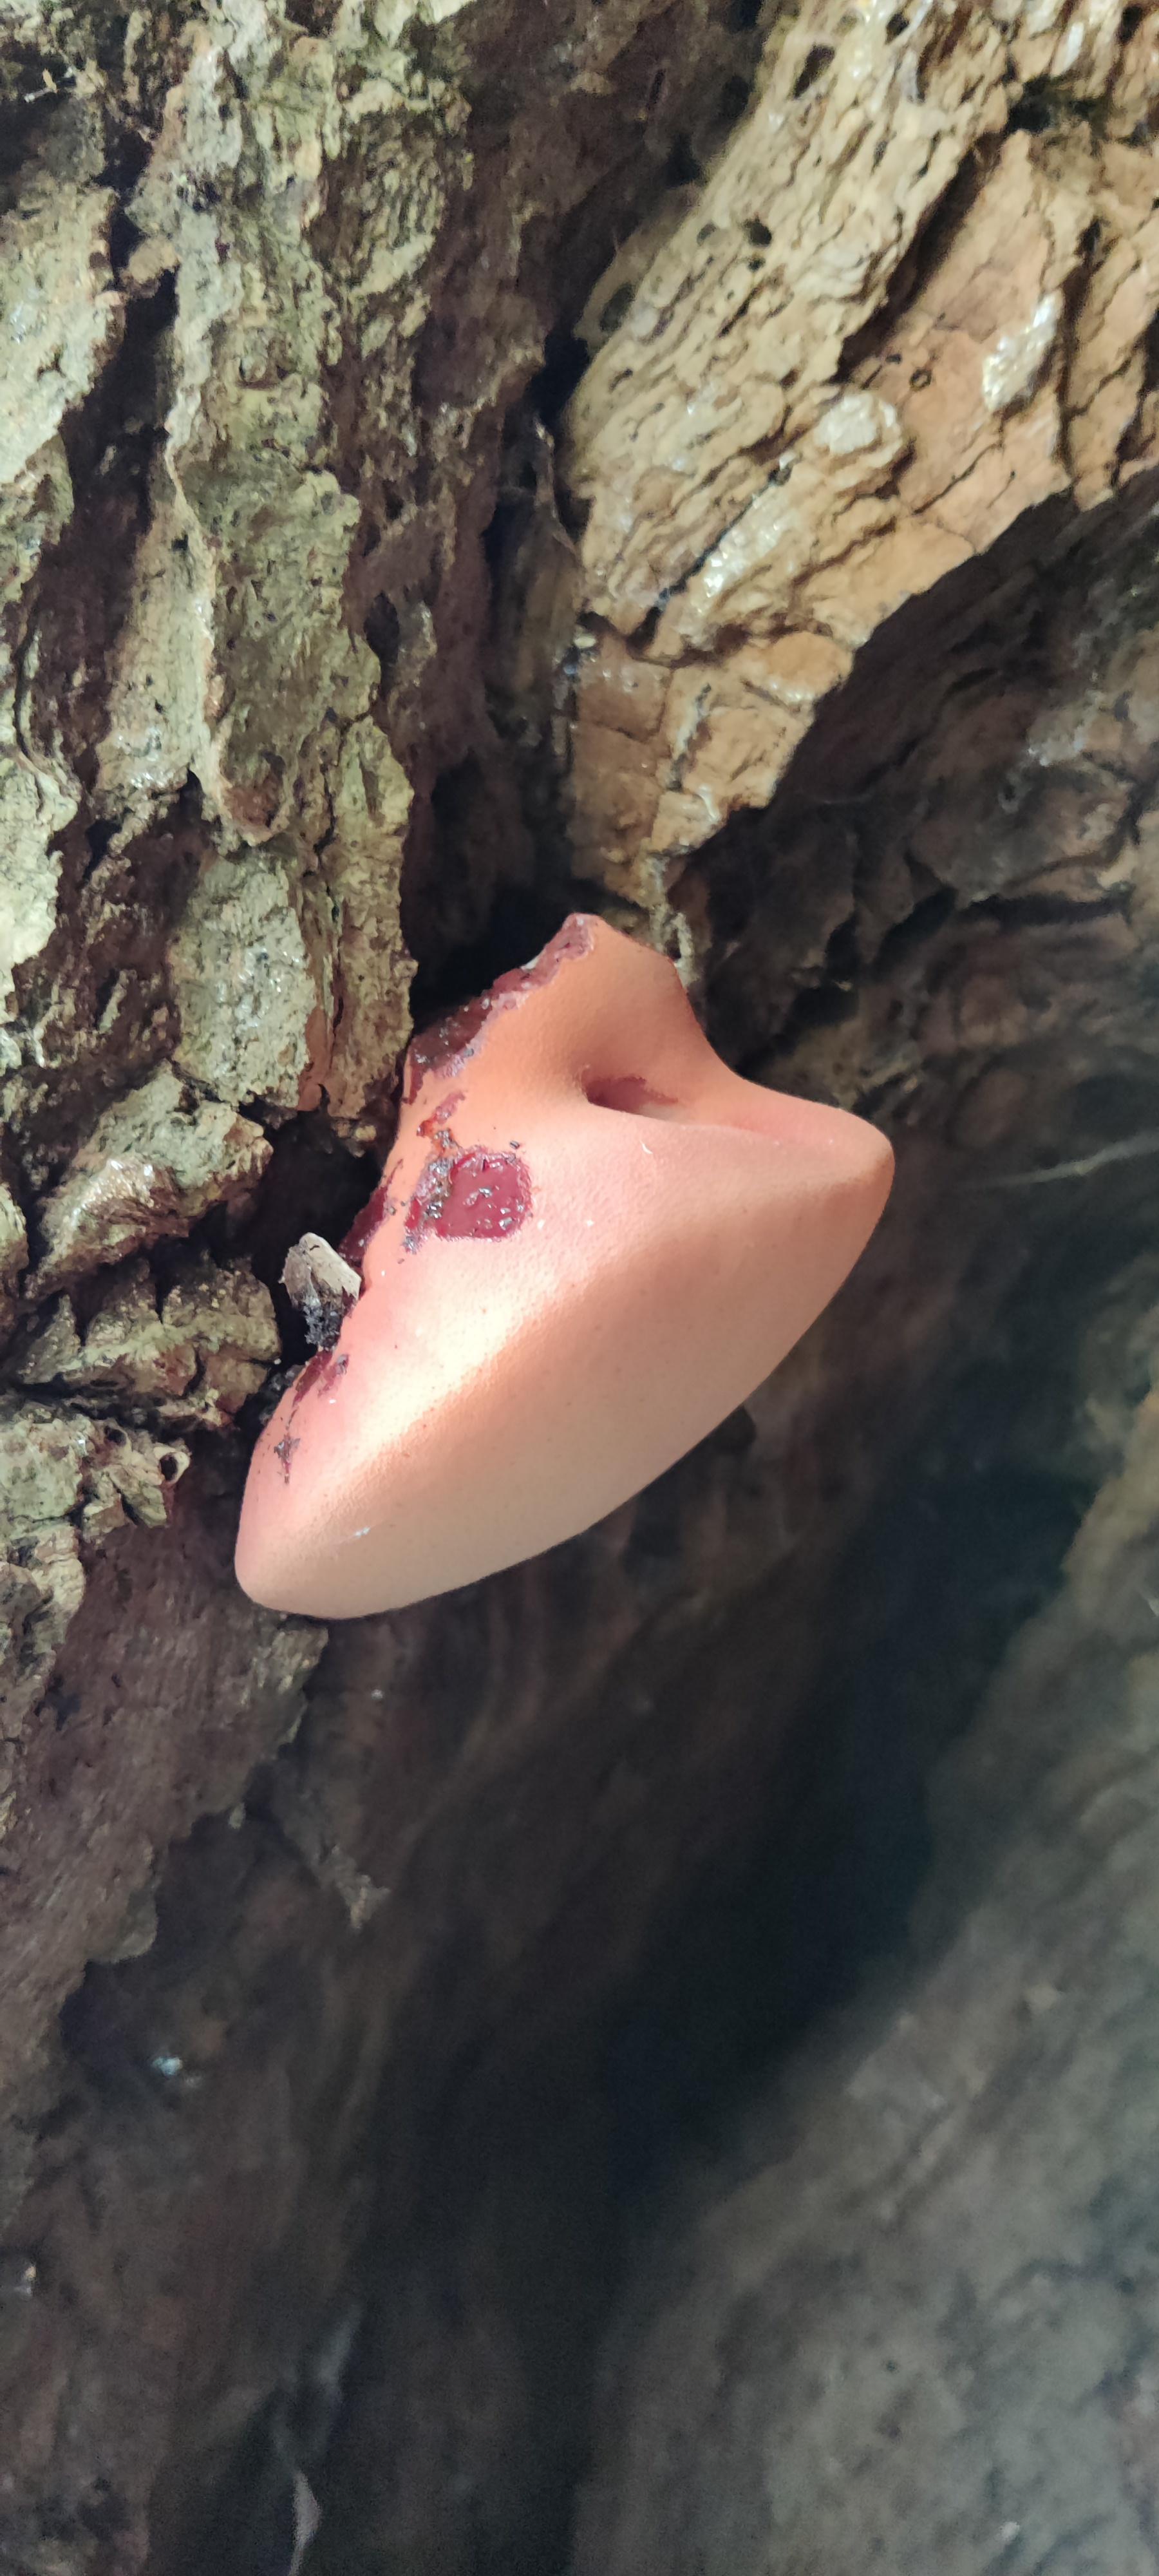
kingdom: Fungi
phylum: Basidiomycota
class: Agaricomycetes
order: Agaricales
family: Fistulinaceae
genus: Fistulina
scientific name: Fistulina hepatica
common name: oksetunge
